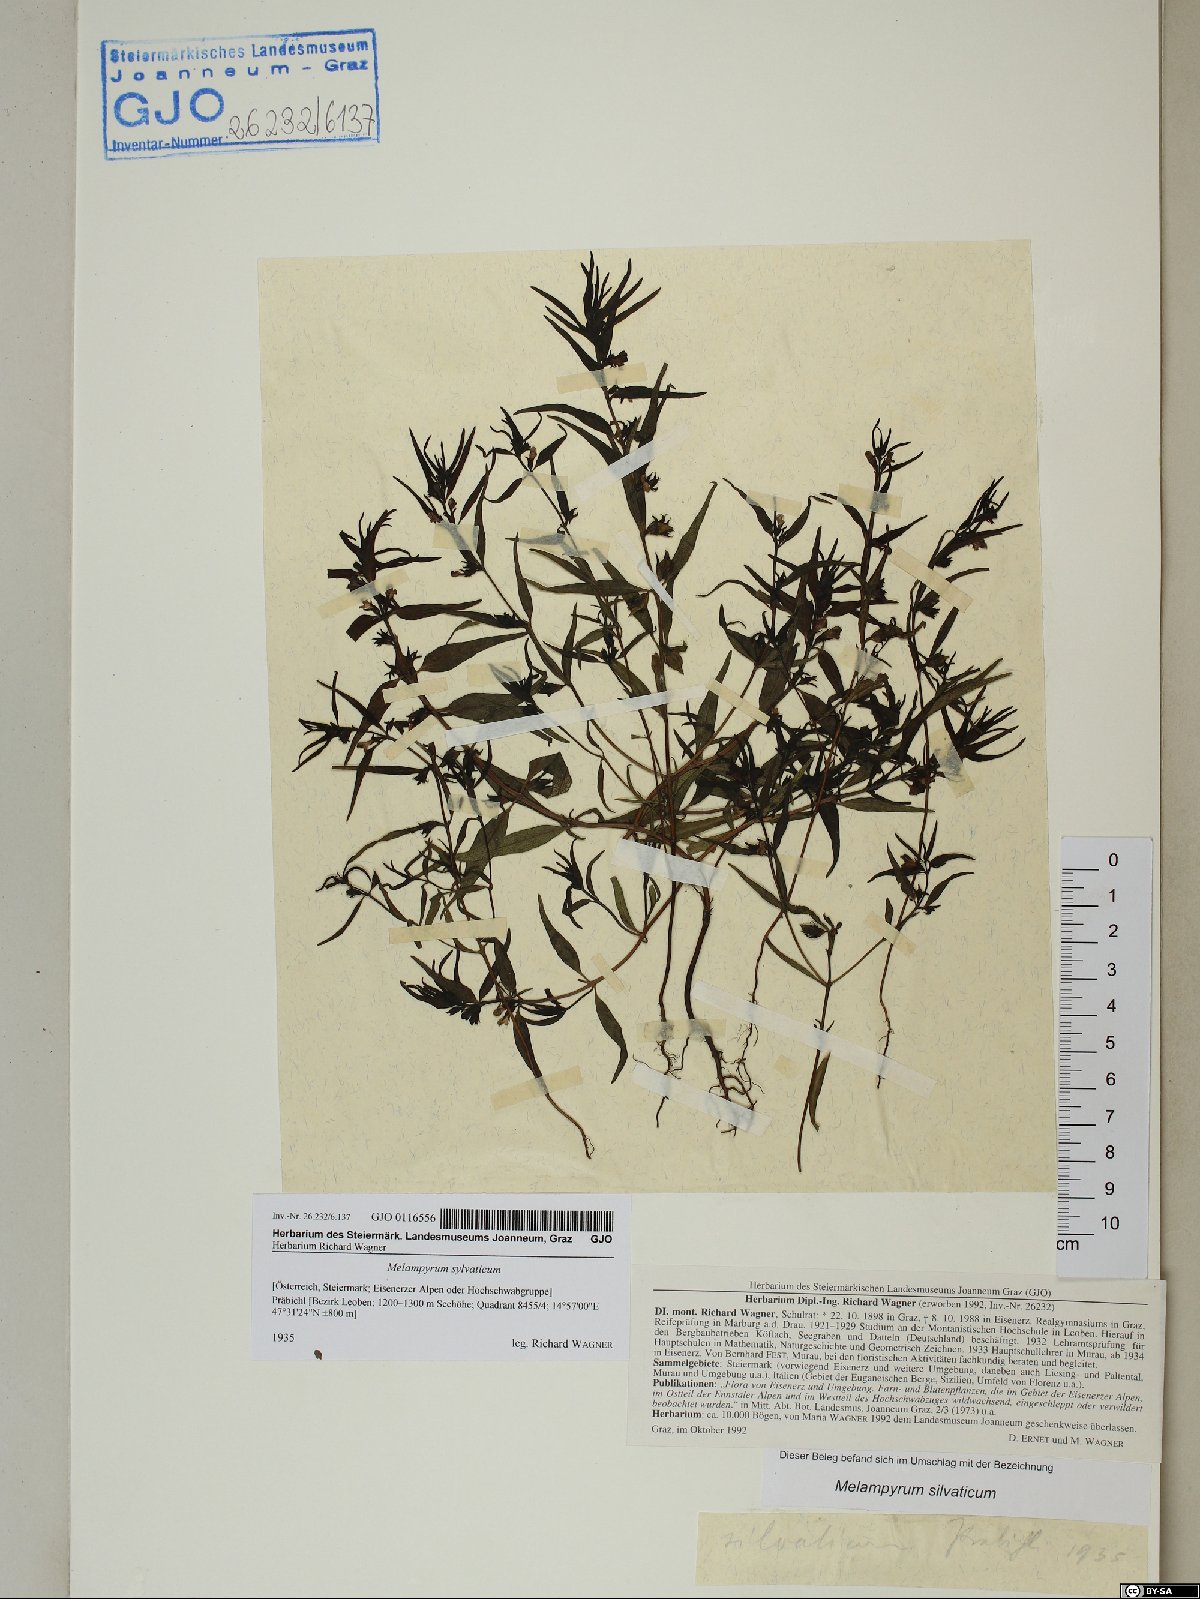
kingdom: Plantae
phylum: Tracheophyta
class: Magnoliopsida
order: Lamiales
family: Orobanchaceae
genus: Melampyrum
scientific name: Melampyrum sylvaticum
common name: Small cow-wheat
